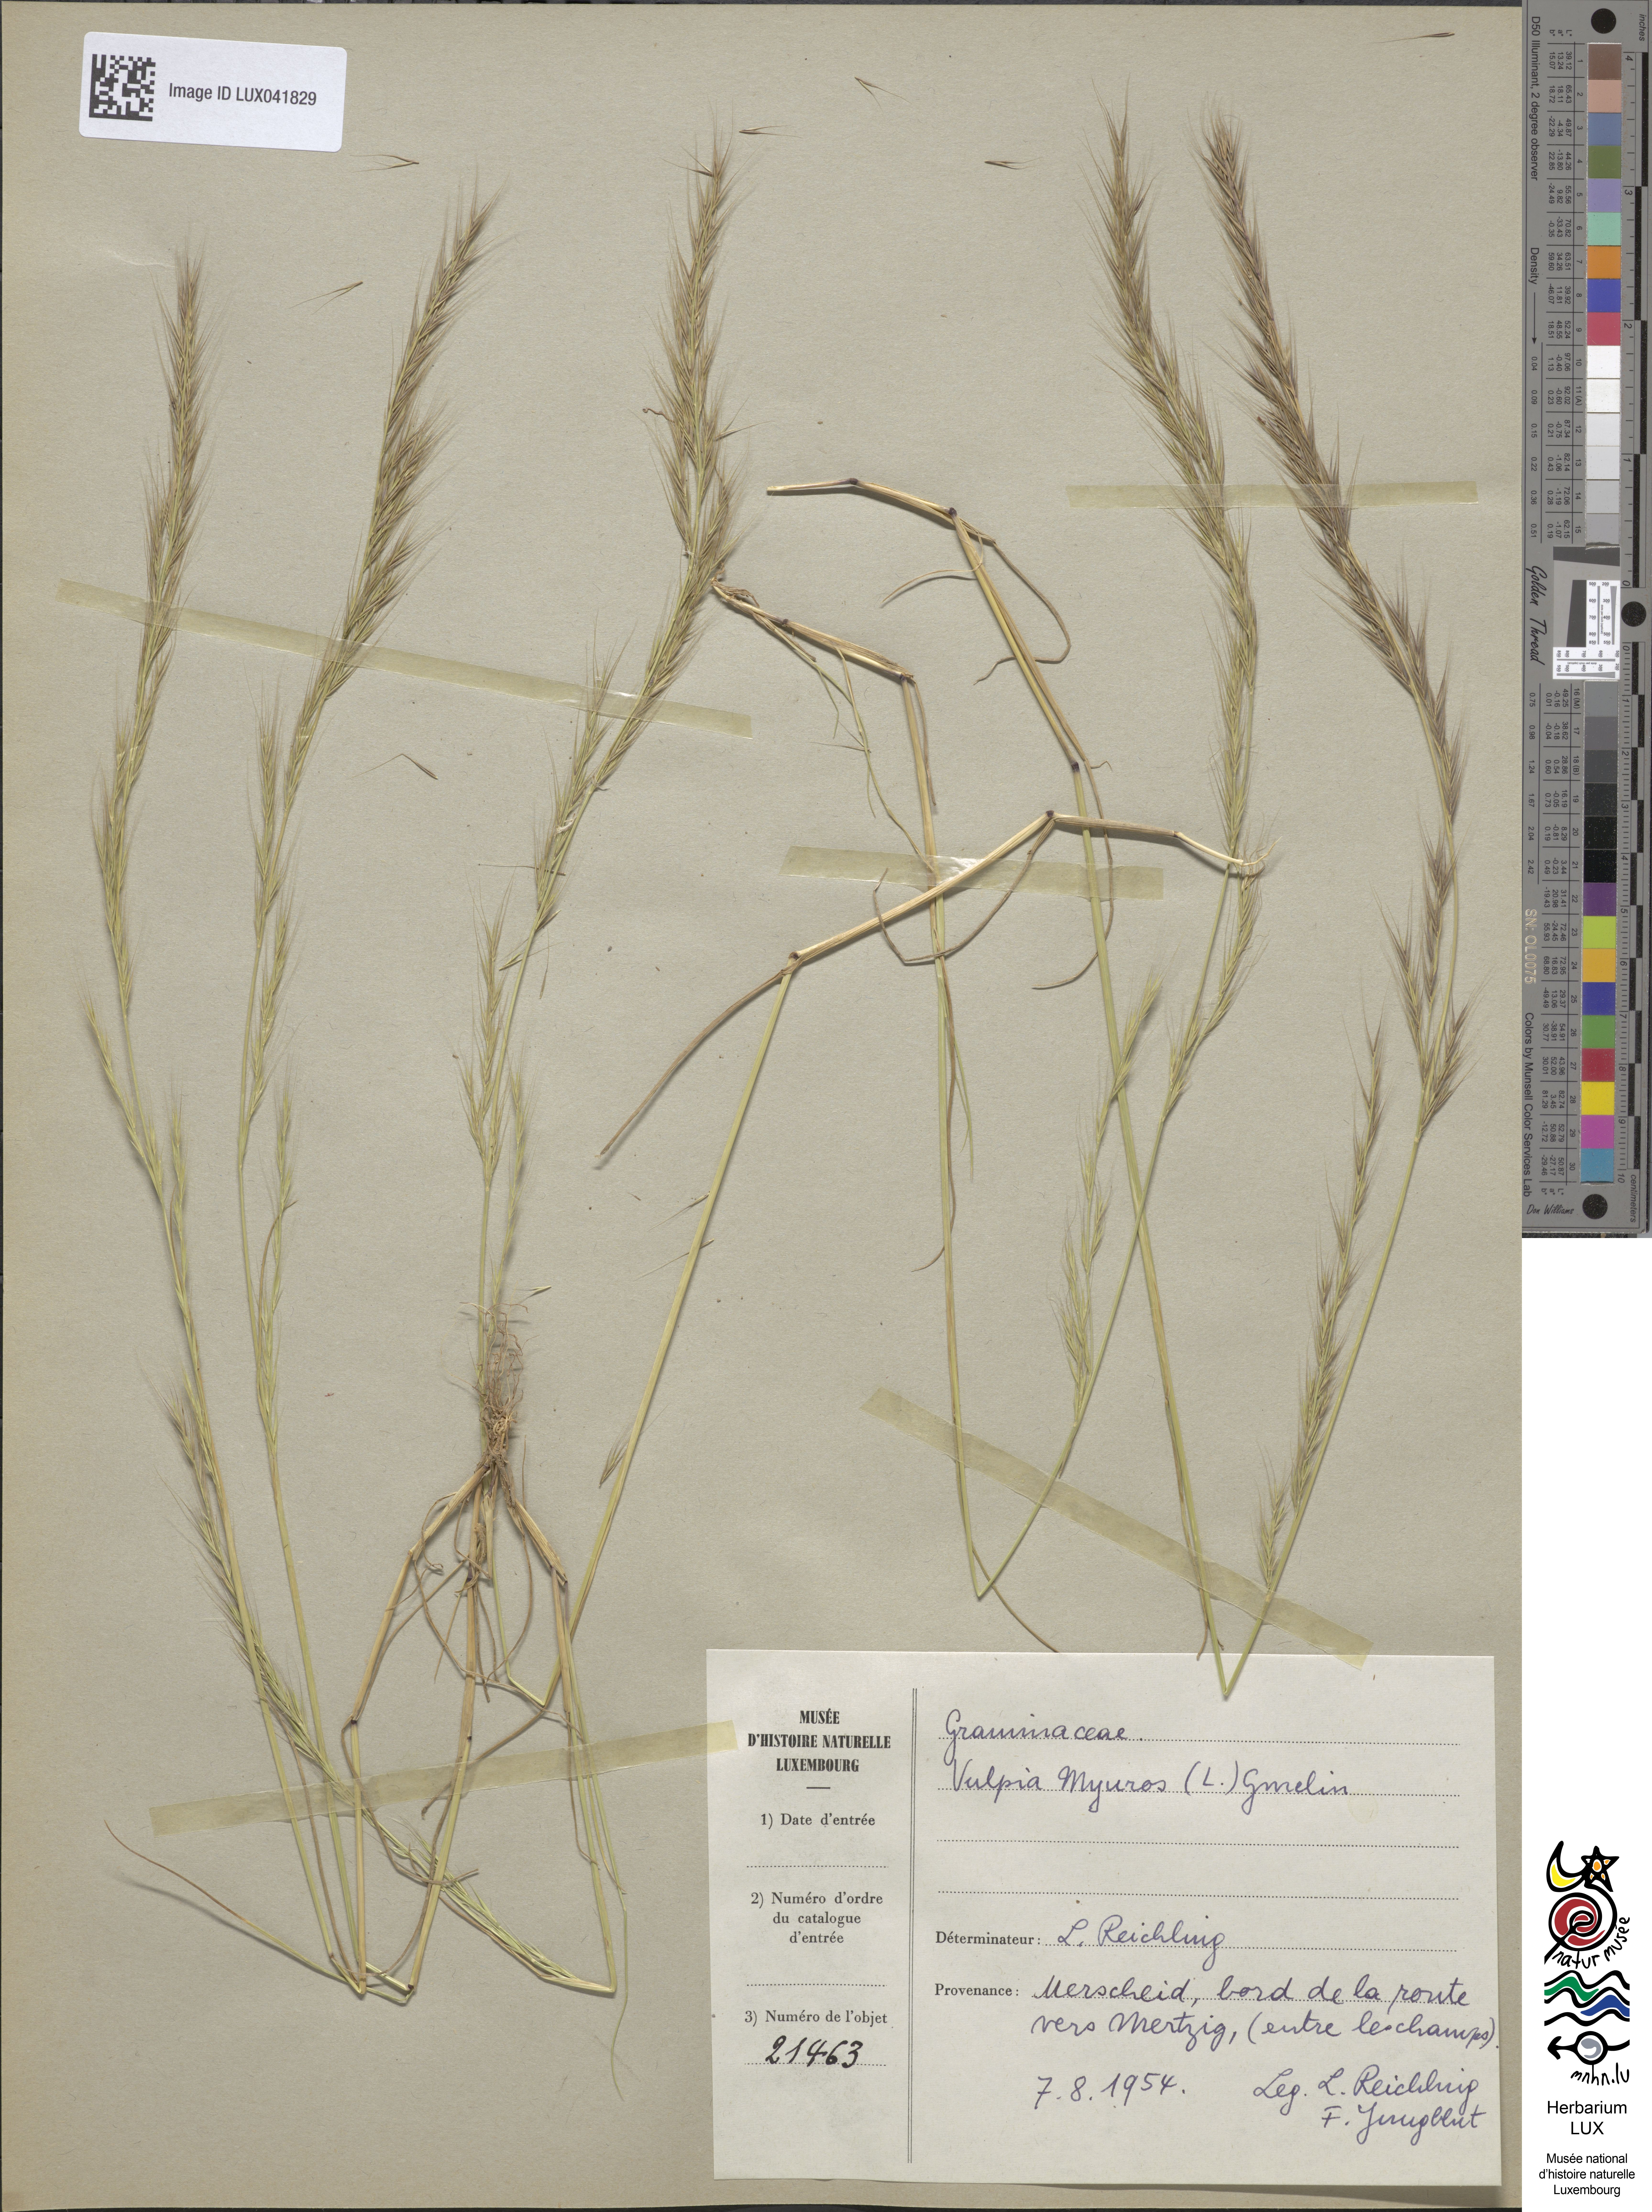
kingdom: Plantae
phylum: Tracheophyta
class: Liliopsida
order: Poales
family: Poaceae
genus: Festuca
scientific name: Festuca myuros
